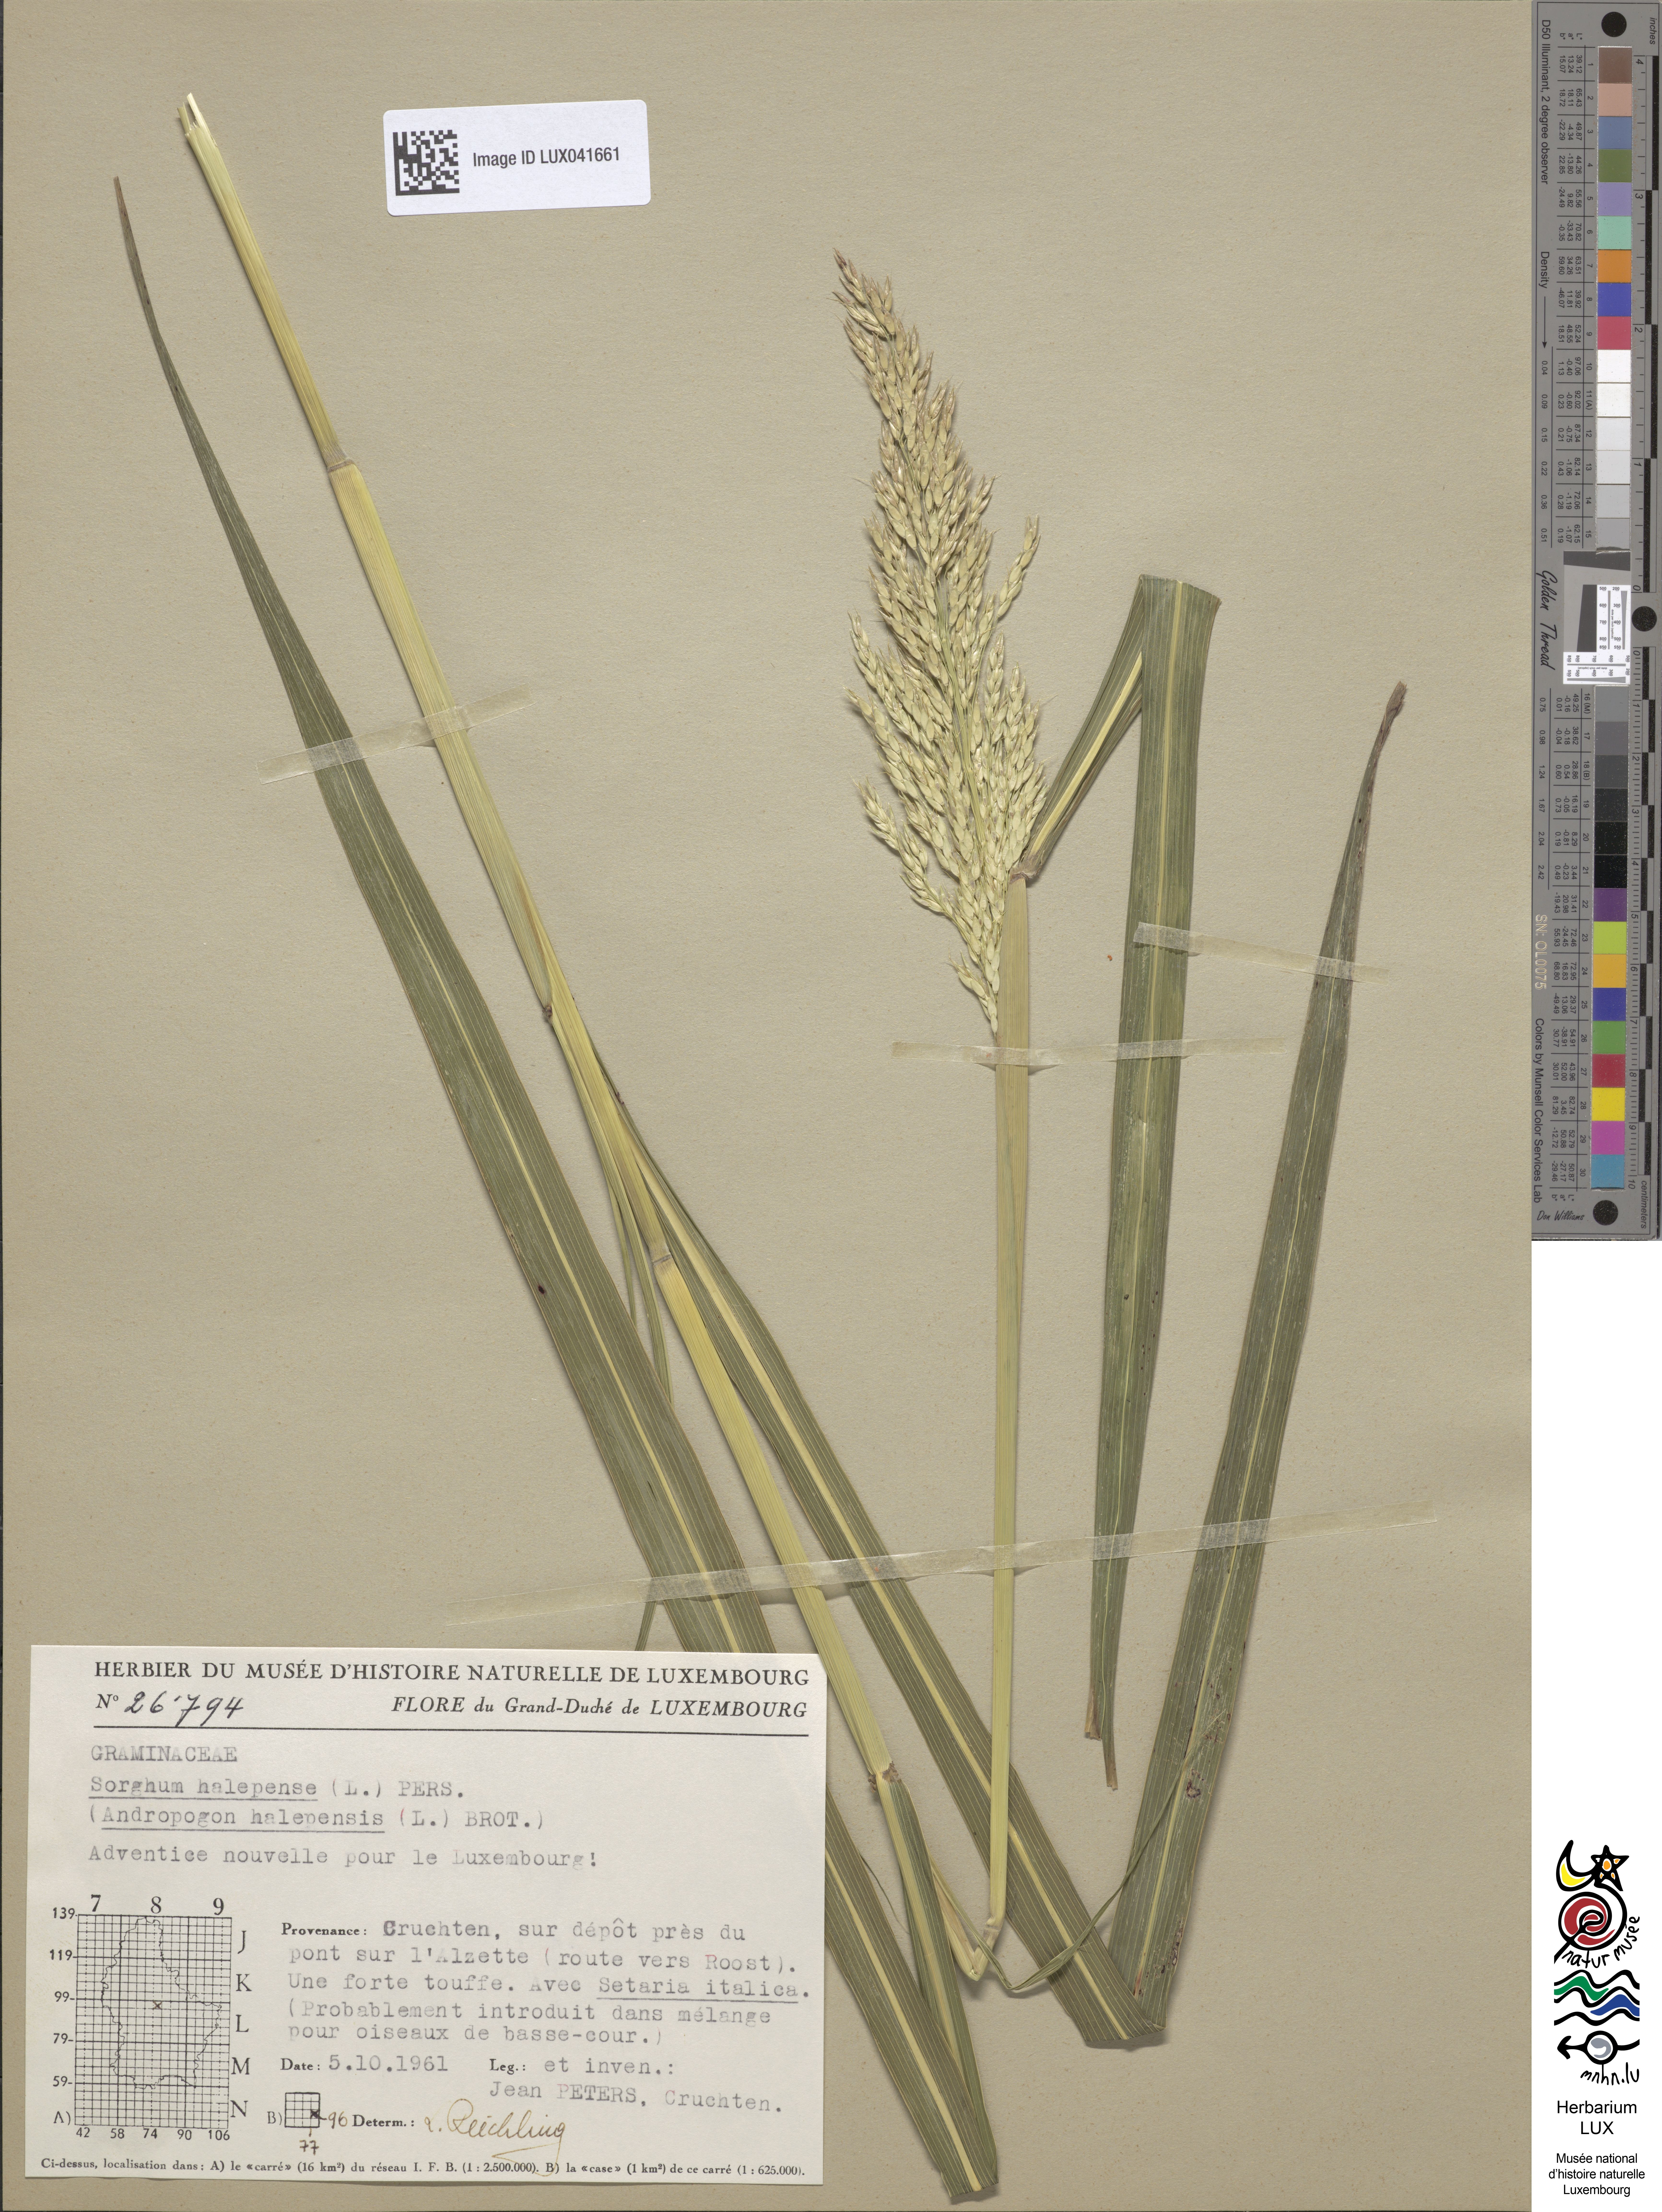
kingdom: Plantae
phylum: Tracheophyta
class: Liliopsida
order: Poales
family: Poaceae
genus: Sorghum
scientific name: Sorghum halepense
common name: Johnson-grass
